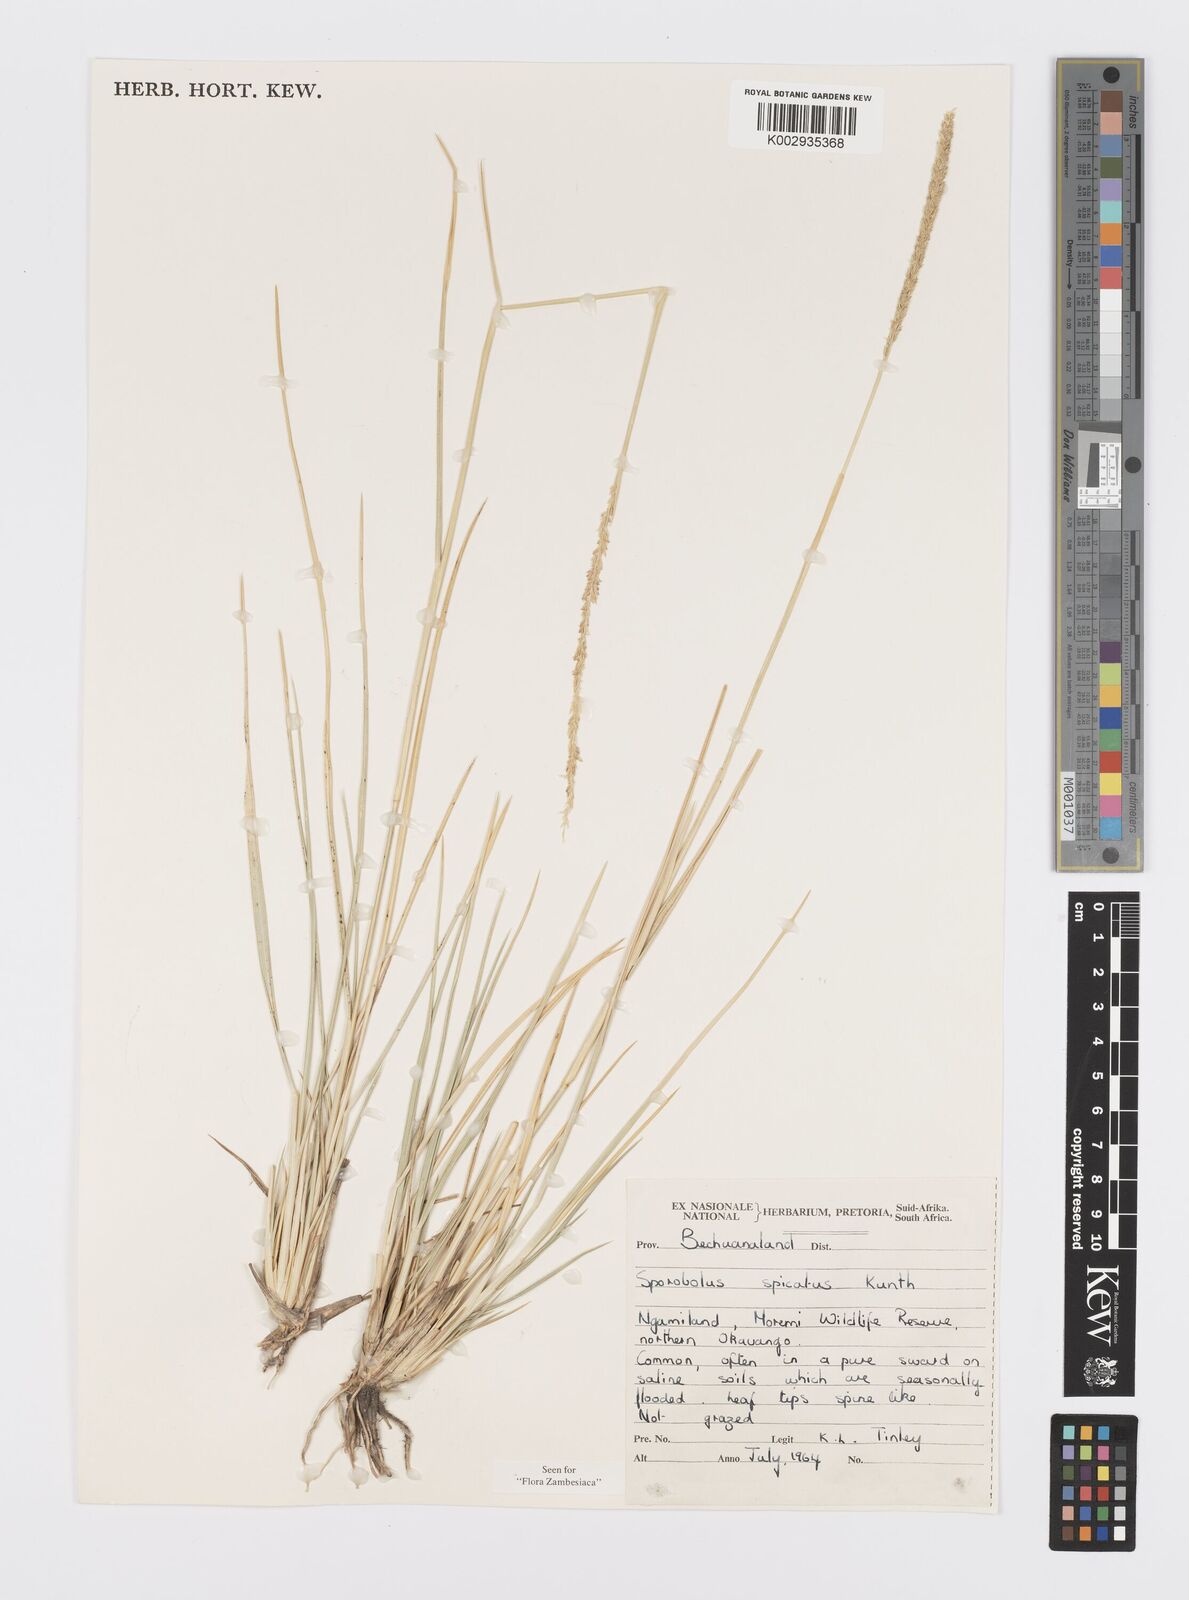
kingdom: Plantae
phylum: Tracheophyta
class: Liliopsida
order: Poales
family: Poaceae
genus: Sporobolus
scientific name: Sporobolus spicatus
